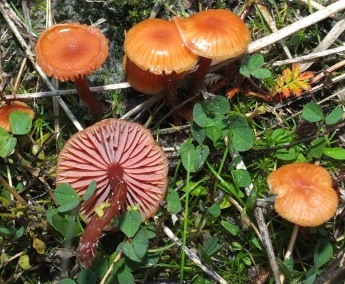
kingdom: Fungi
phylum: Basidiomycota
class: Agaricomycetes
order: Agaricales
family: Hydnangiaceae
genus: Laccaria
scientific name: Laccaria laccata
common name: rød ametysthat
